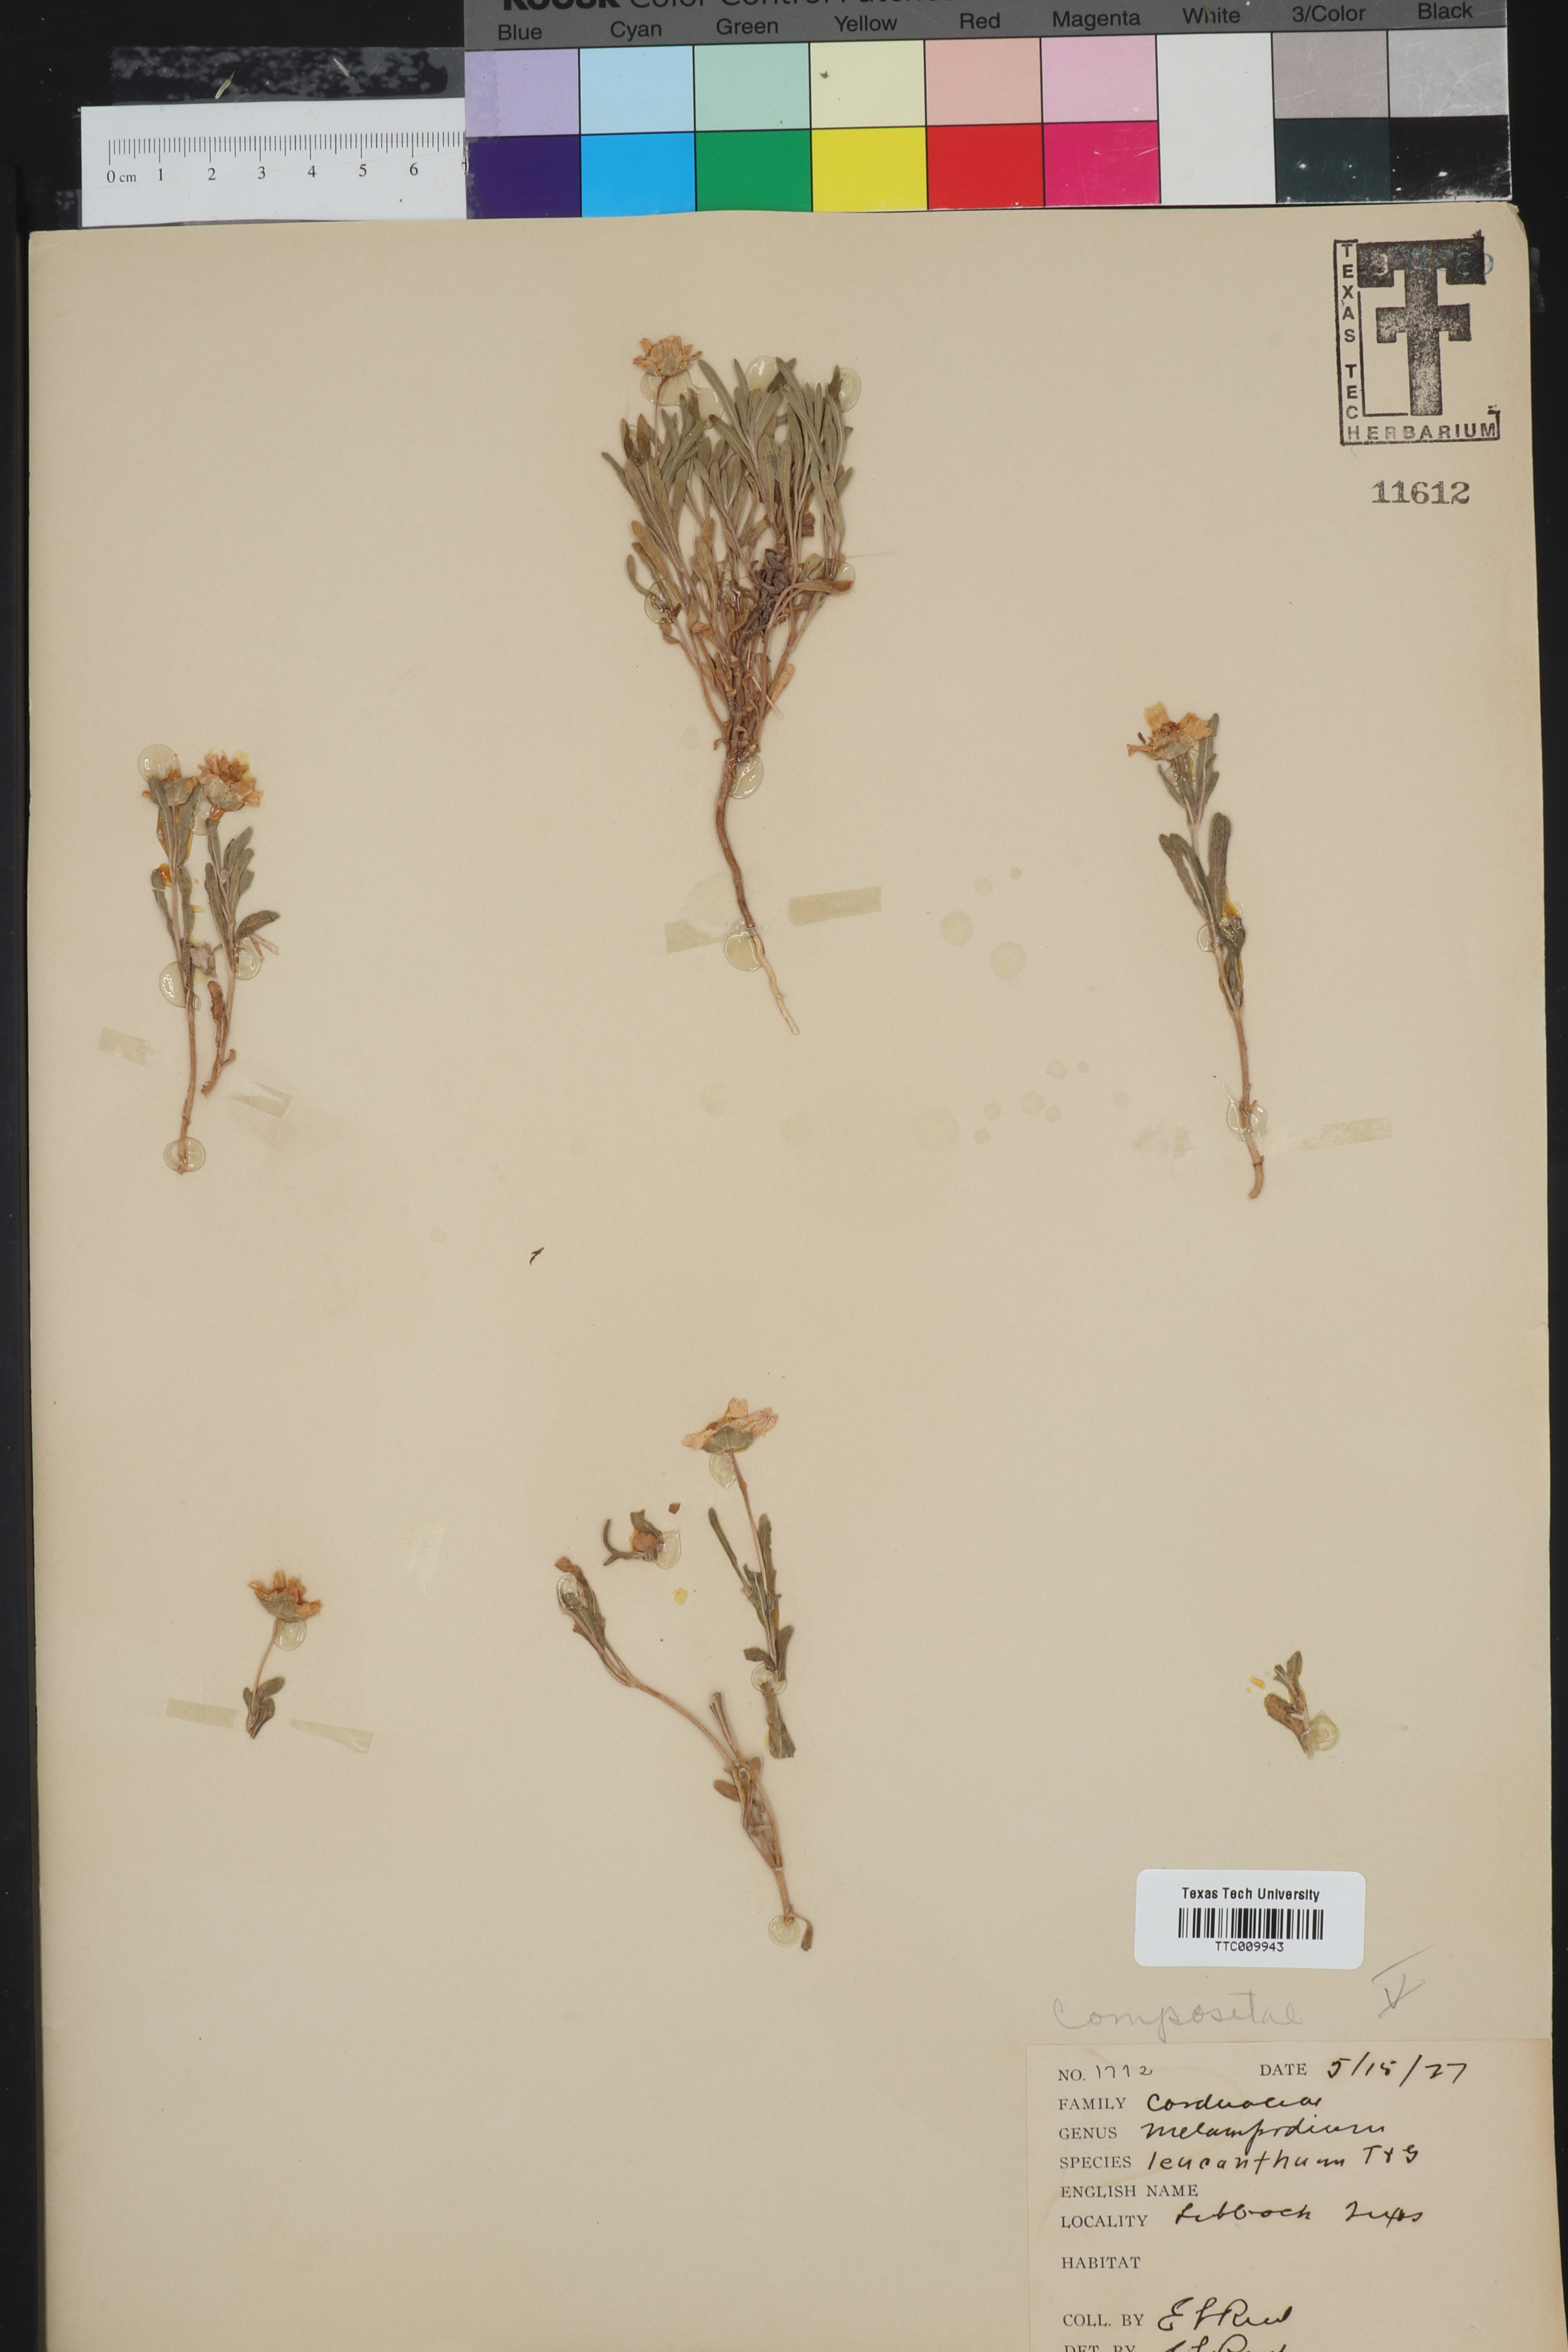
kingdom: Plantae
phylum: Tracheophyta
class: Magnoliopsida
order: Asterales
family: Asteraceae
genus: Melampodium
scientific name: Melampodium leucanthum
